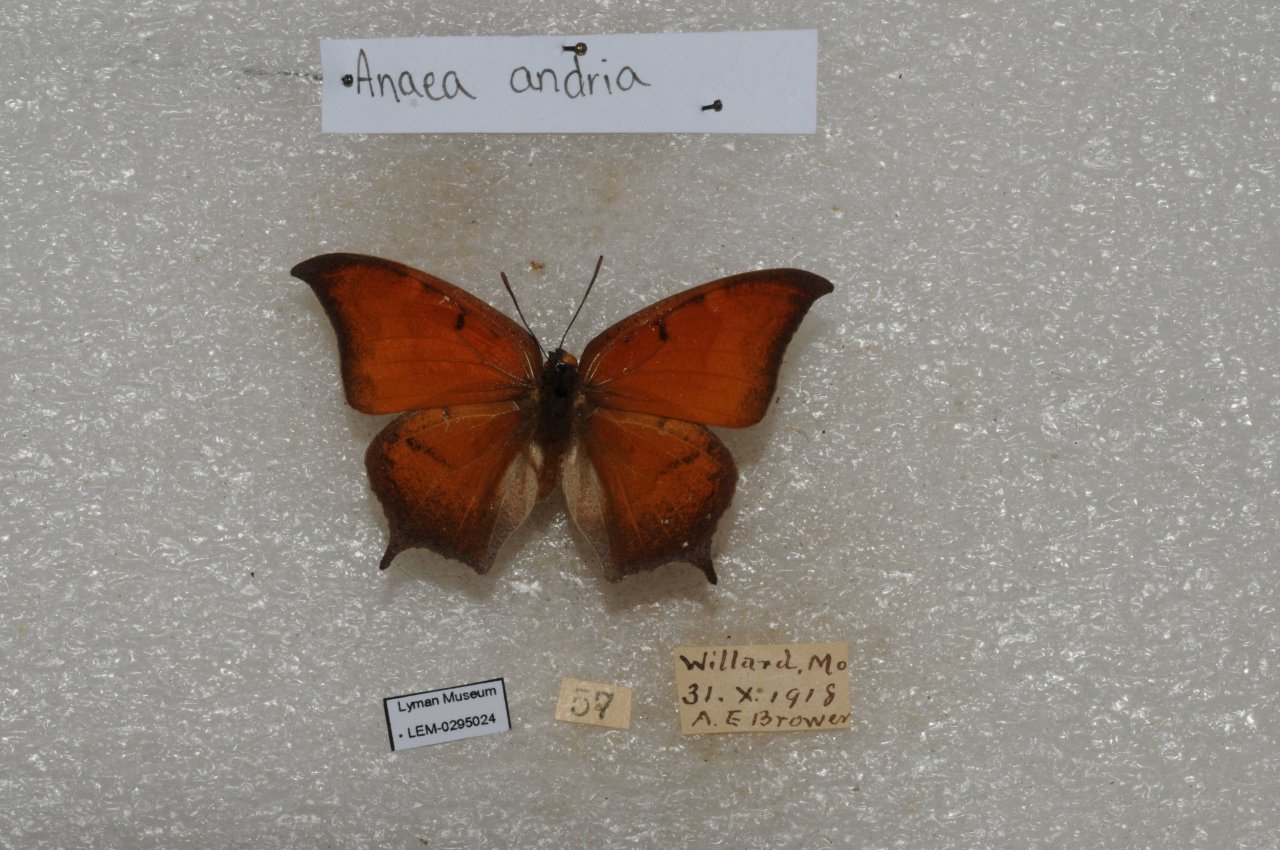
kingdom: Animalia
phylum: Arthropoda
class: Insecta
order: Lepidoptera
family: Nymphalidae
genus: Anaea
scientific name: Anaea andria
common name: Goatweed Leafwing
